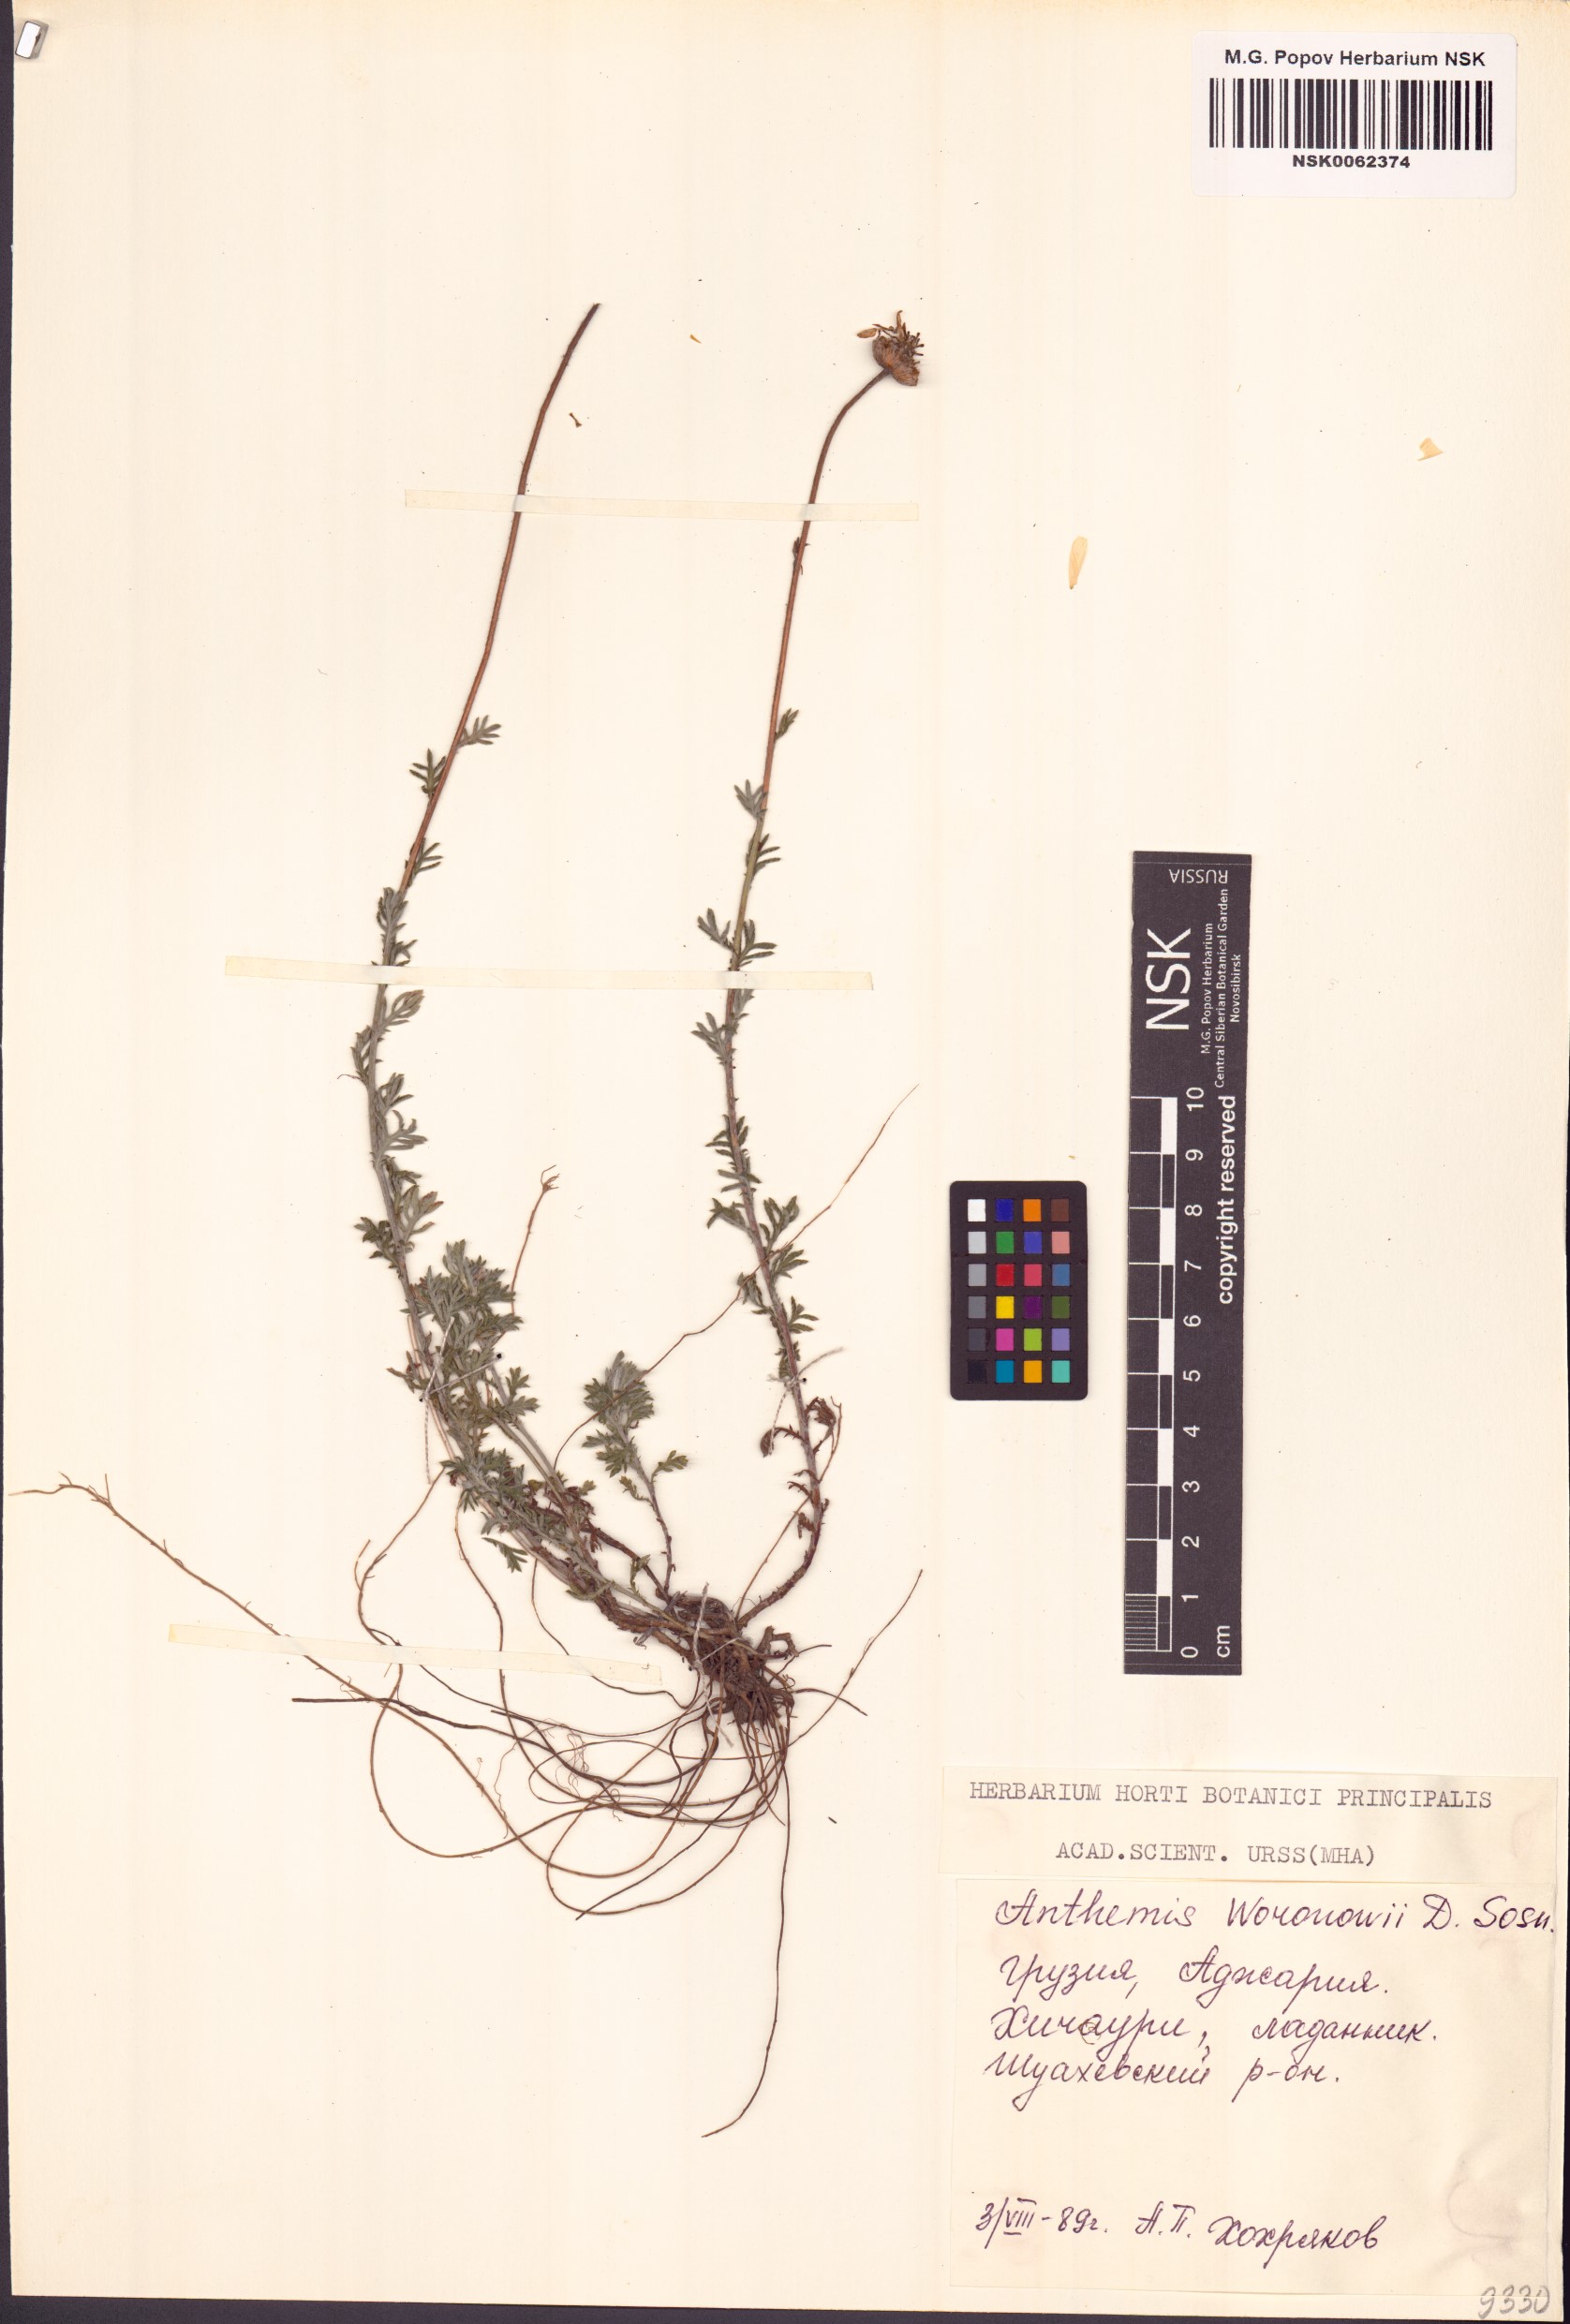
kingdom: Plantae
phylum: Tracheophyta
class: Magnoliopsida
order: Asterales
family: Asteraceae
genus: Cota
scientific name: Cota triumfetti
